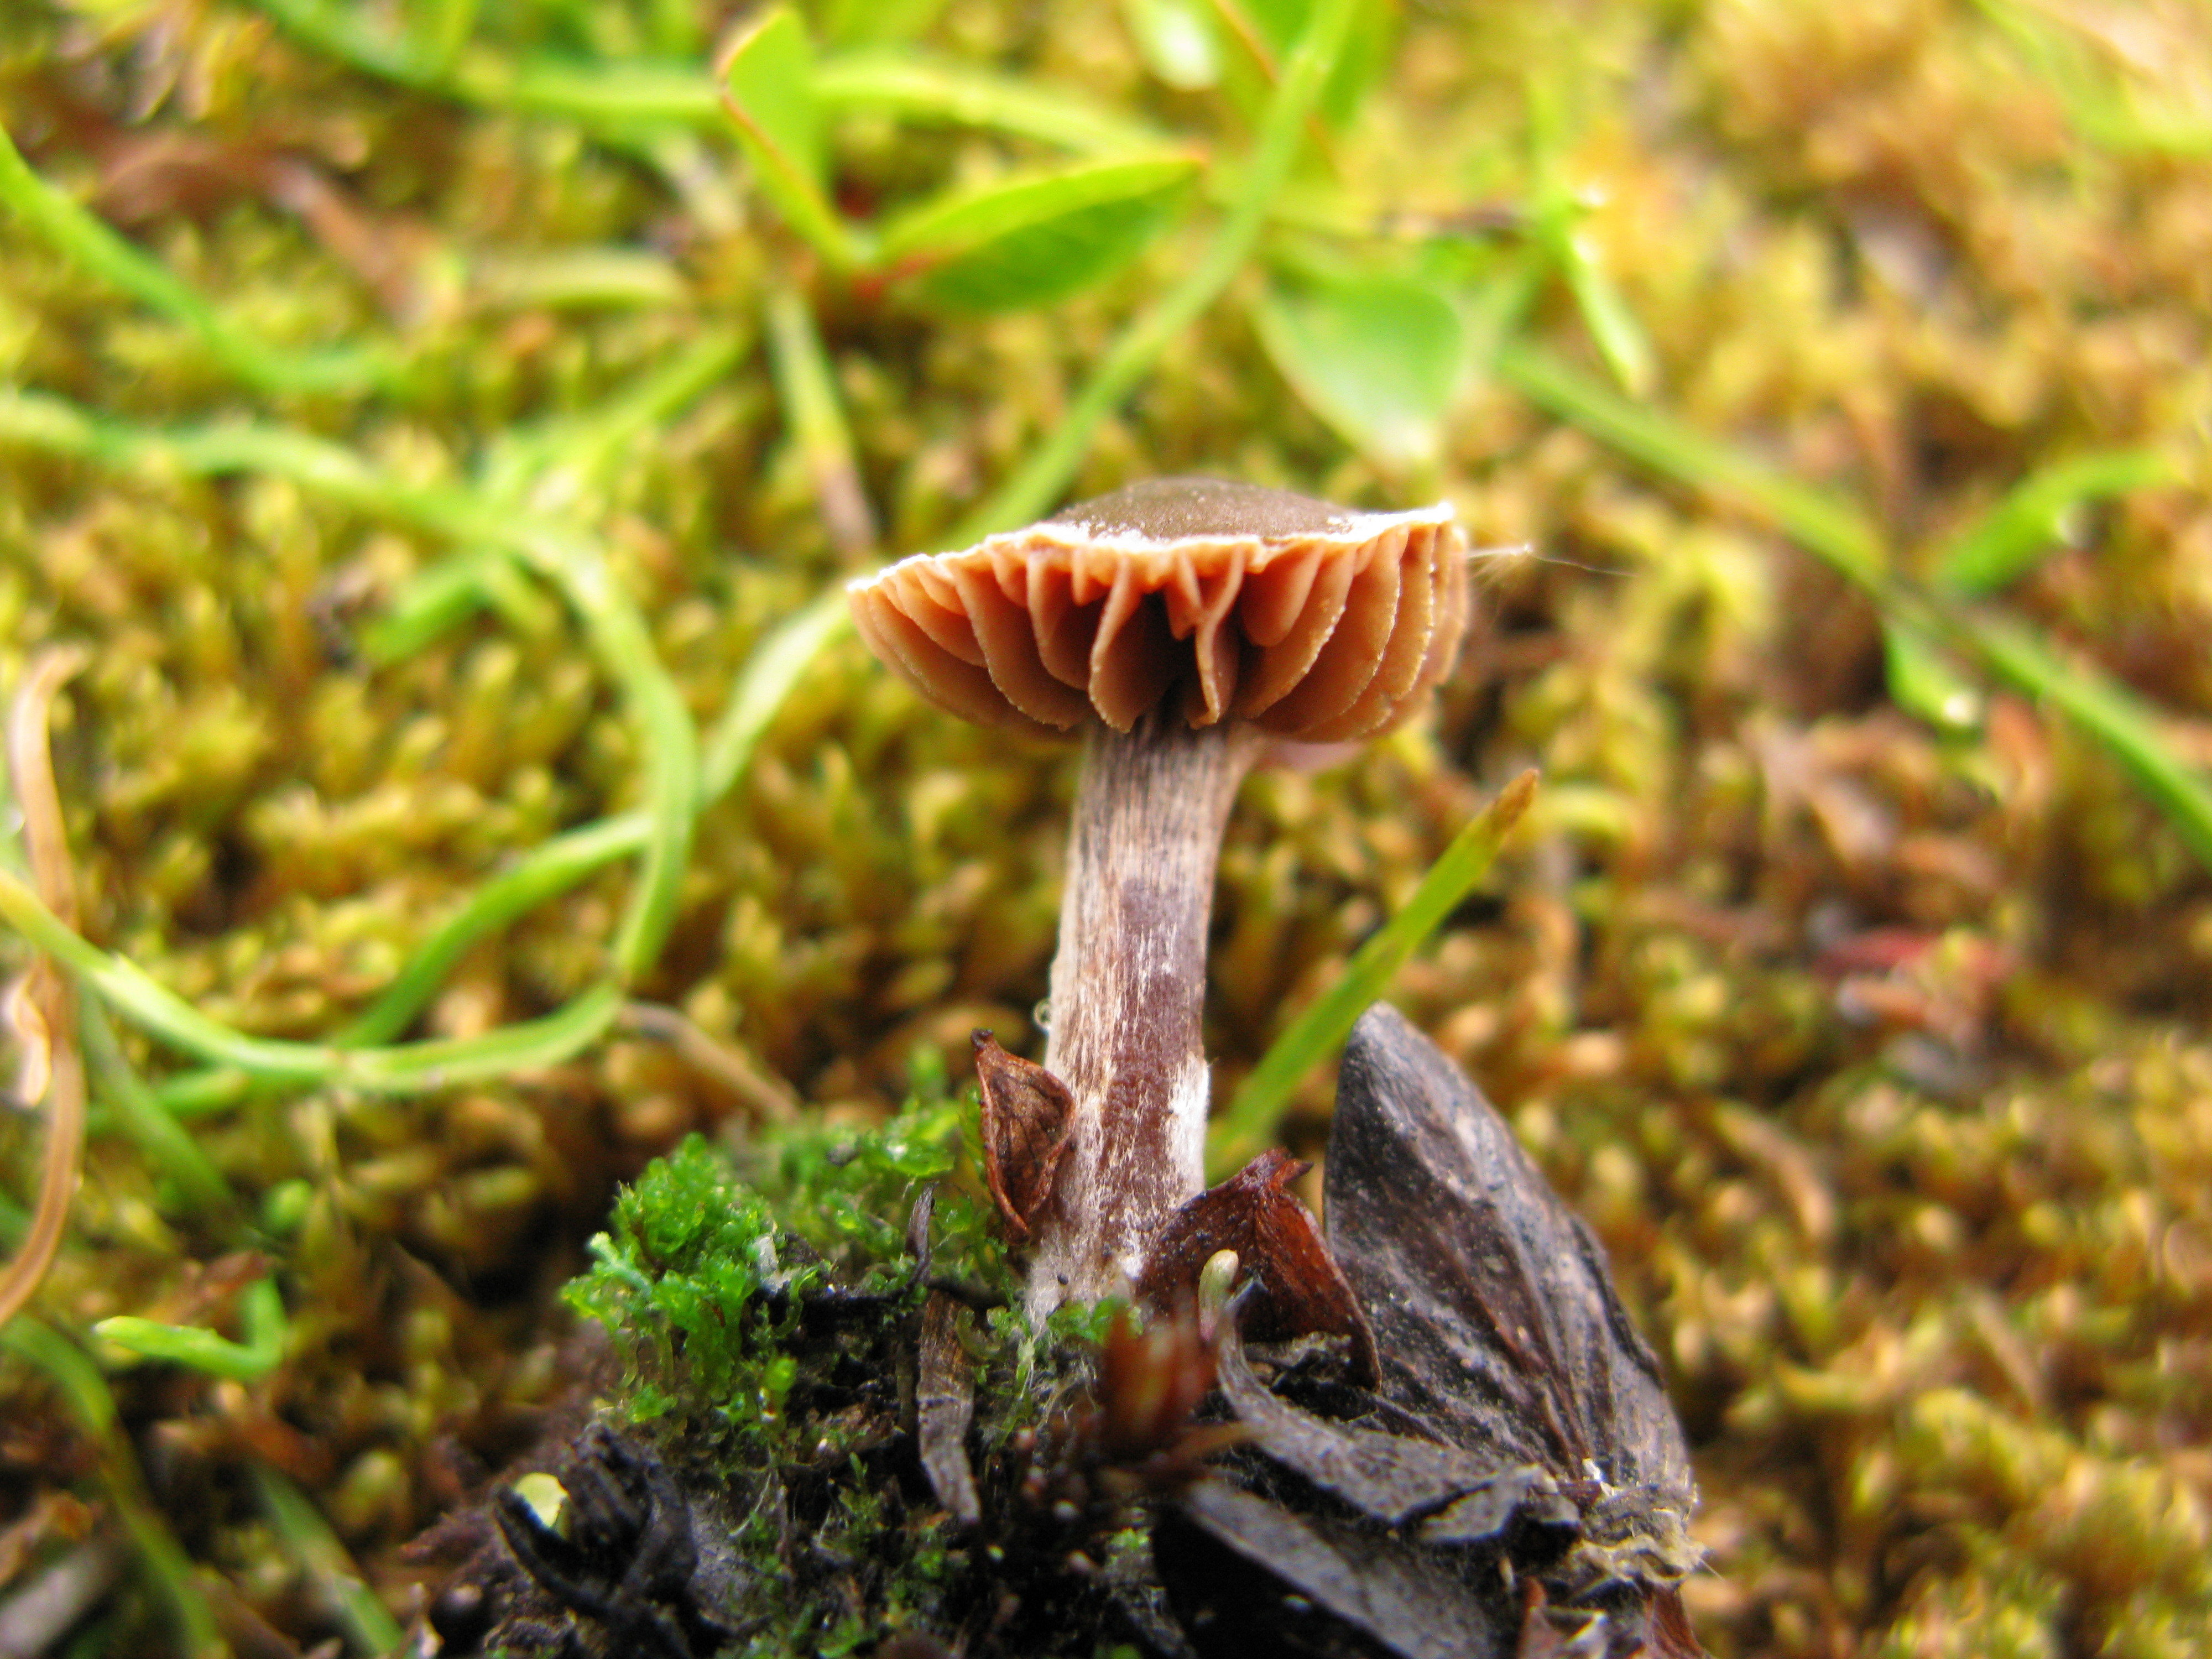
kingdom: Fungi
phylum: Basidiomycota
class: Agaricomycetes
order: Agaricales
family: Cortinariaceae
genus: Cortinarius
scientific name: Cortinarius casimirii
